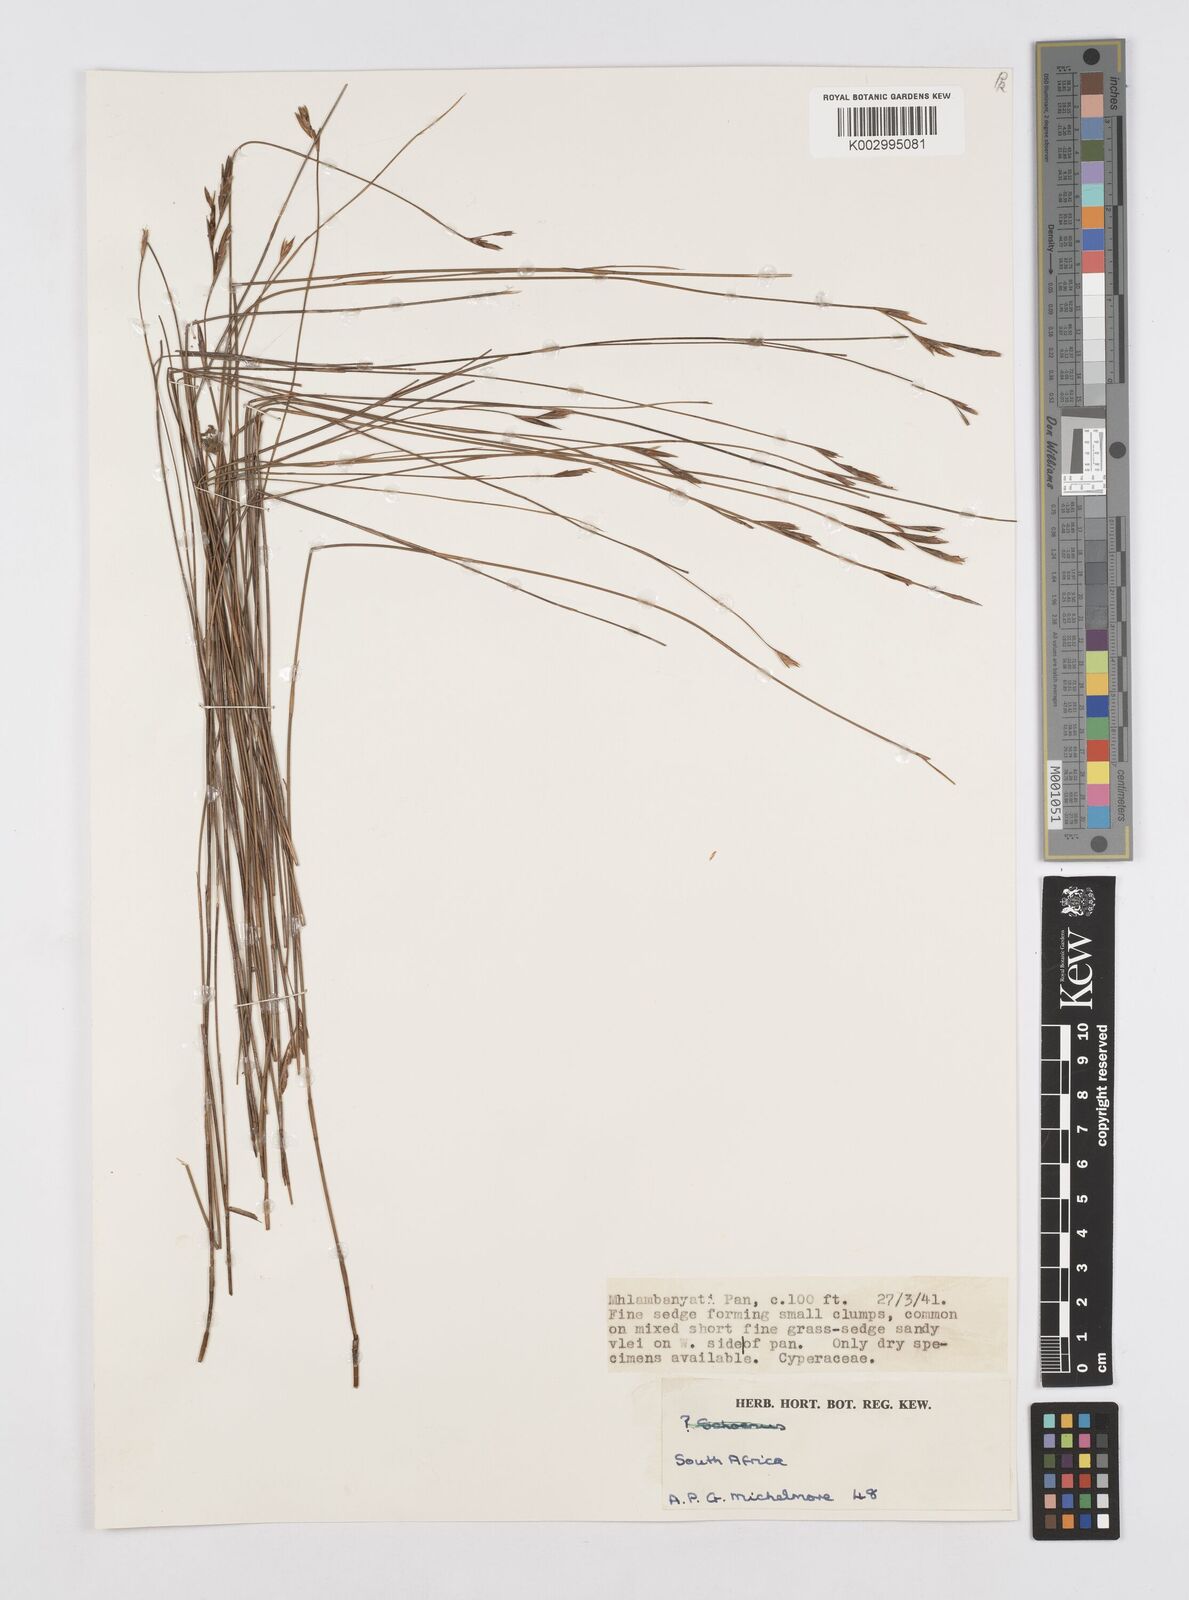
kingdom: Plantae
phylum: Tracheophyta
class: Liliopsida
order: Poales
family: Restionaceae
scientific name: Restionaceae
